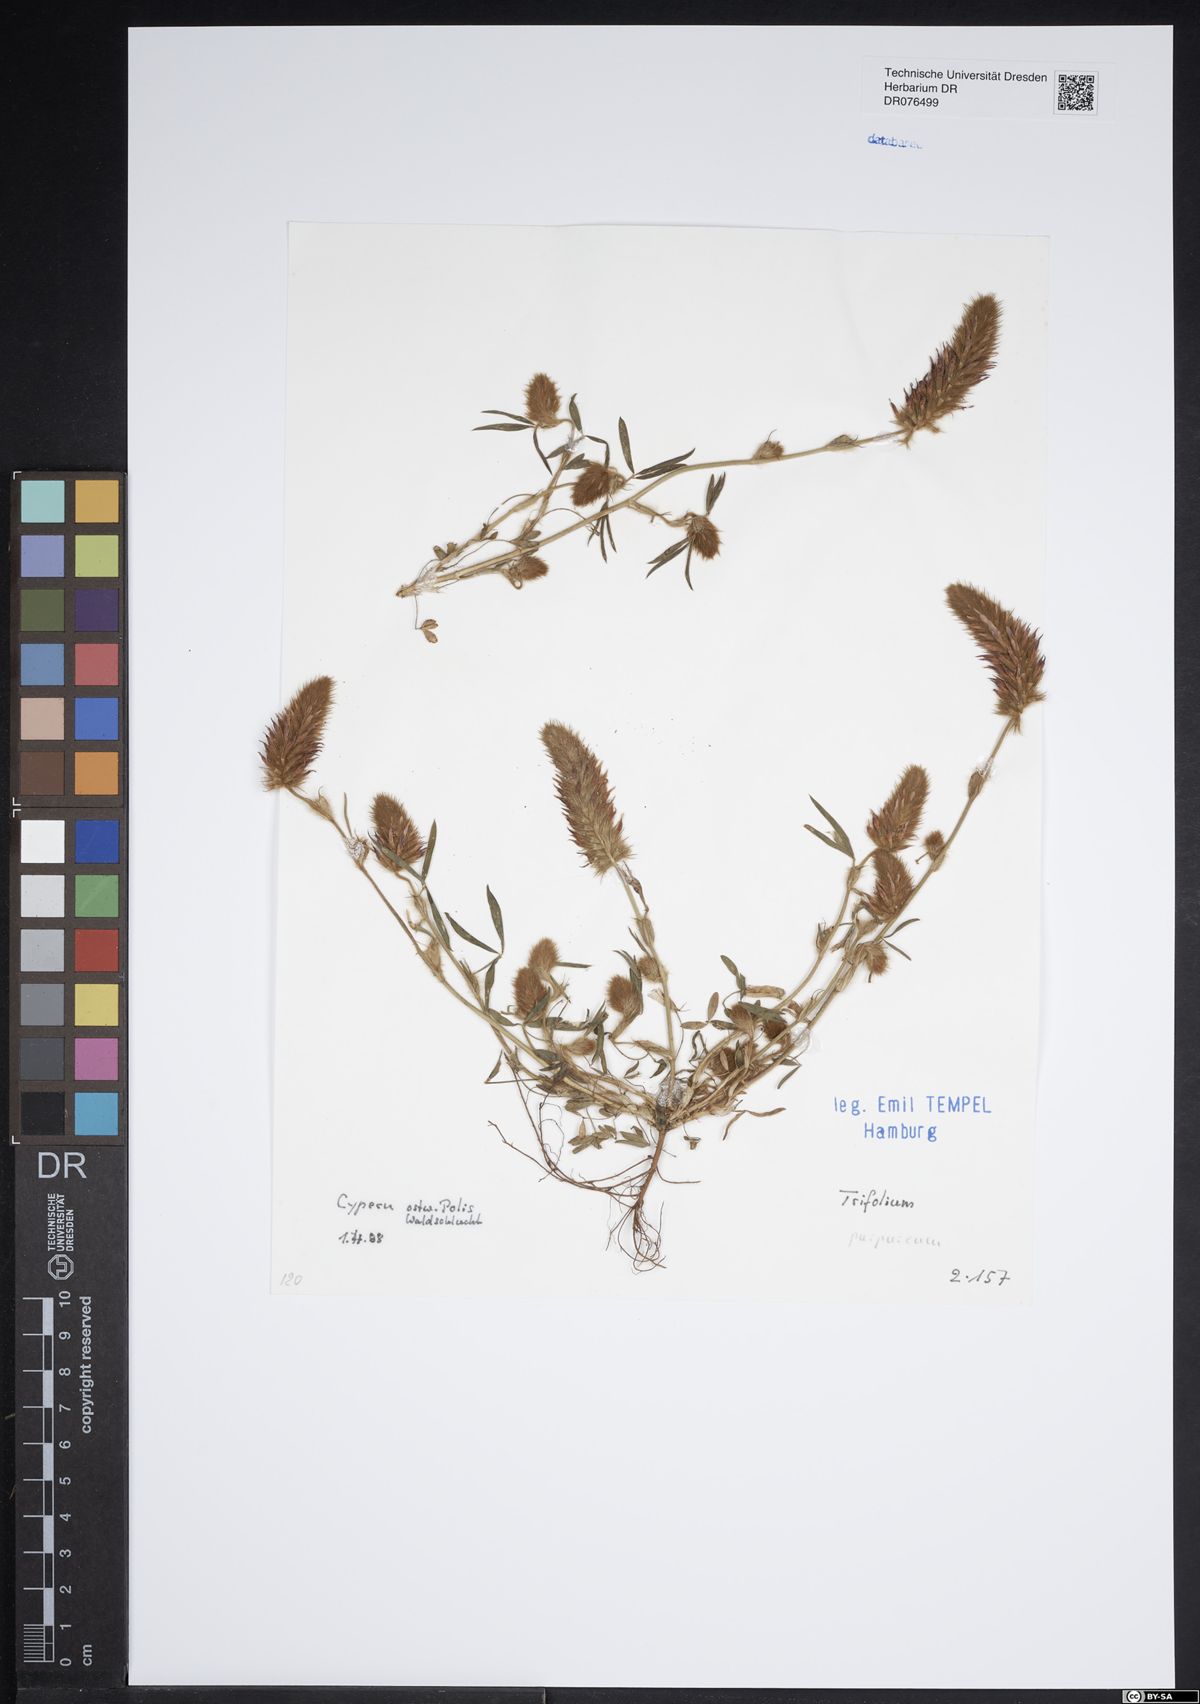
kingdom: Plantae
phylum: Tracheophyta
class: Magnoliopsida
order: Fabales
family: Fabaceae
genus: Trifolium
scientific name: Trifolium purpureum
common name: Purple clover
